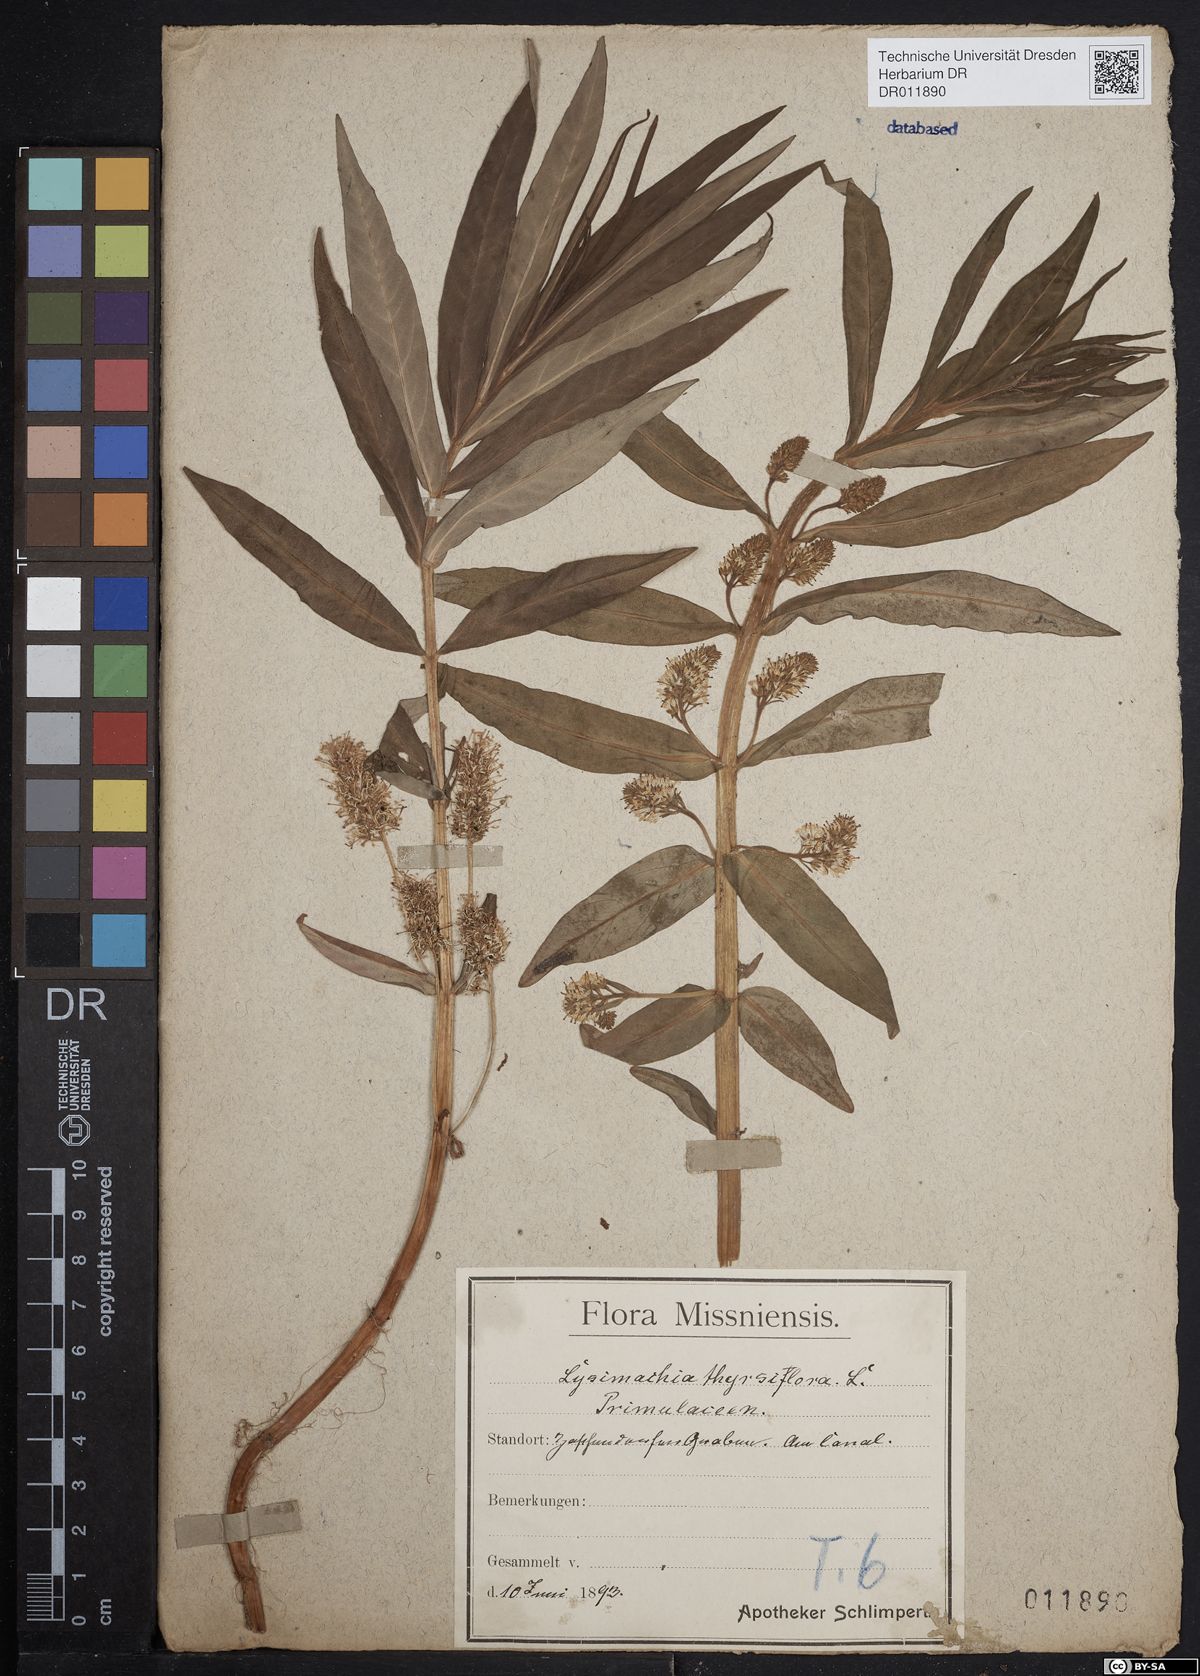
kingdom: Plantae
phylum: Tracheophyta
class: Magnoliopsida
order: Ericales
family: Primulaceae
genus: Lysimachia
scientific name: Lysimachia thyrsiflora
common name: Tufted loosestrife
